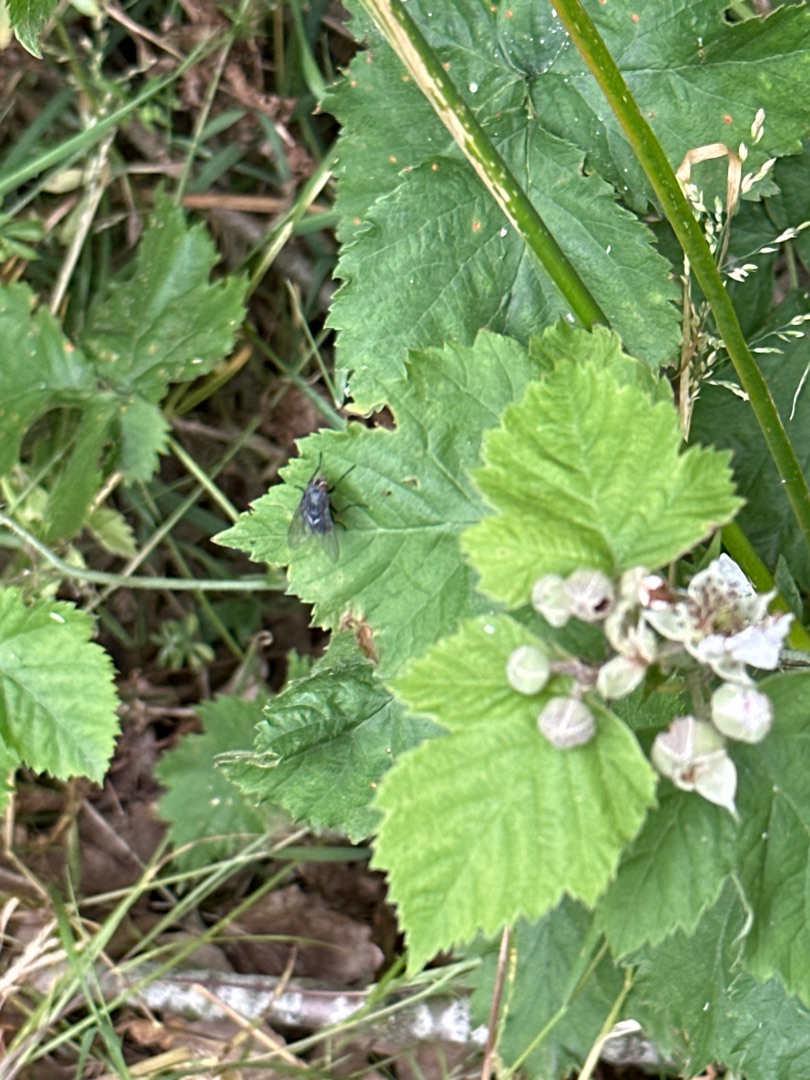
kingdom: Plantae
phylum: Tracheophyta
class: Magnoliopsida
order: Rosales
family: Rosaceae
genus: Rubus
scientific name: Rubus
